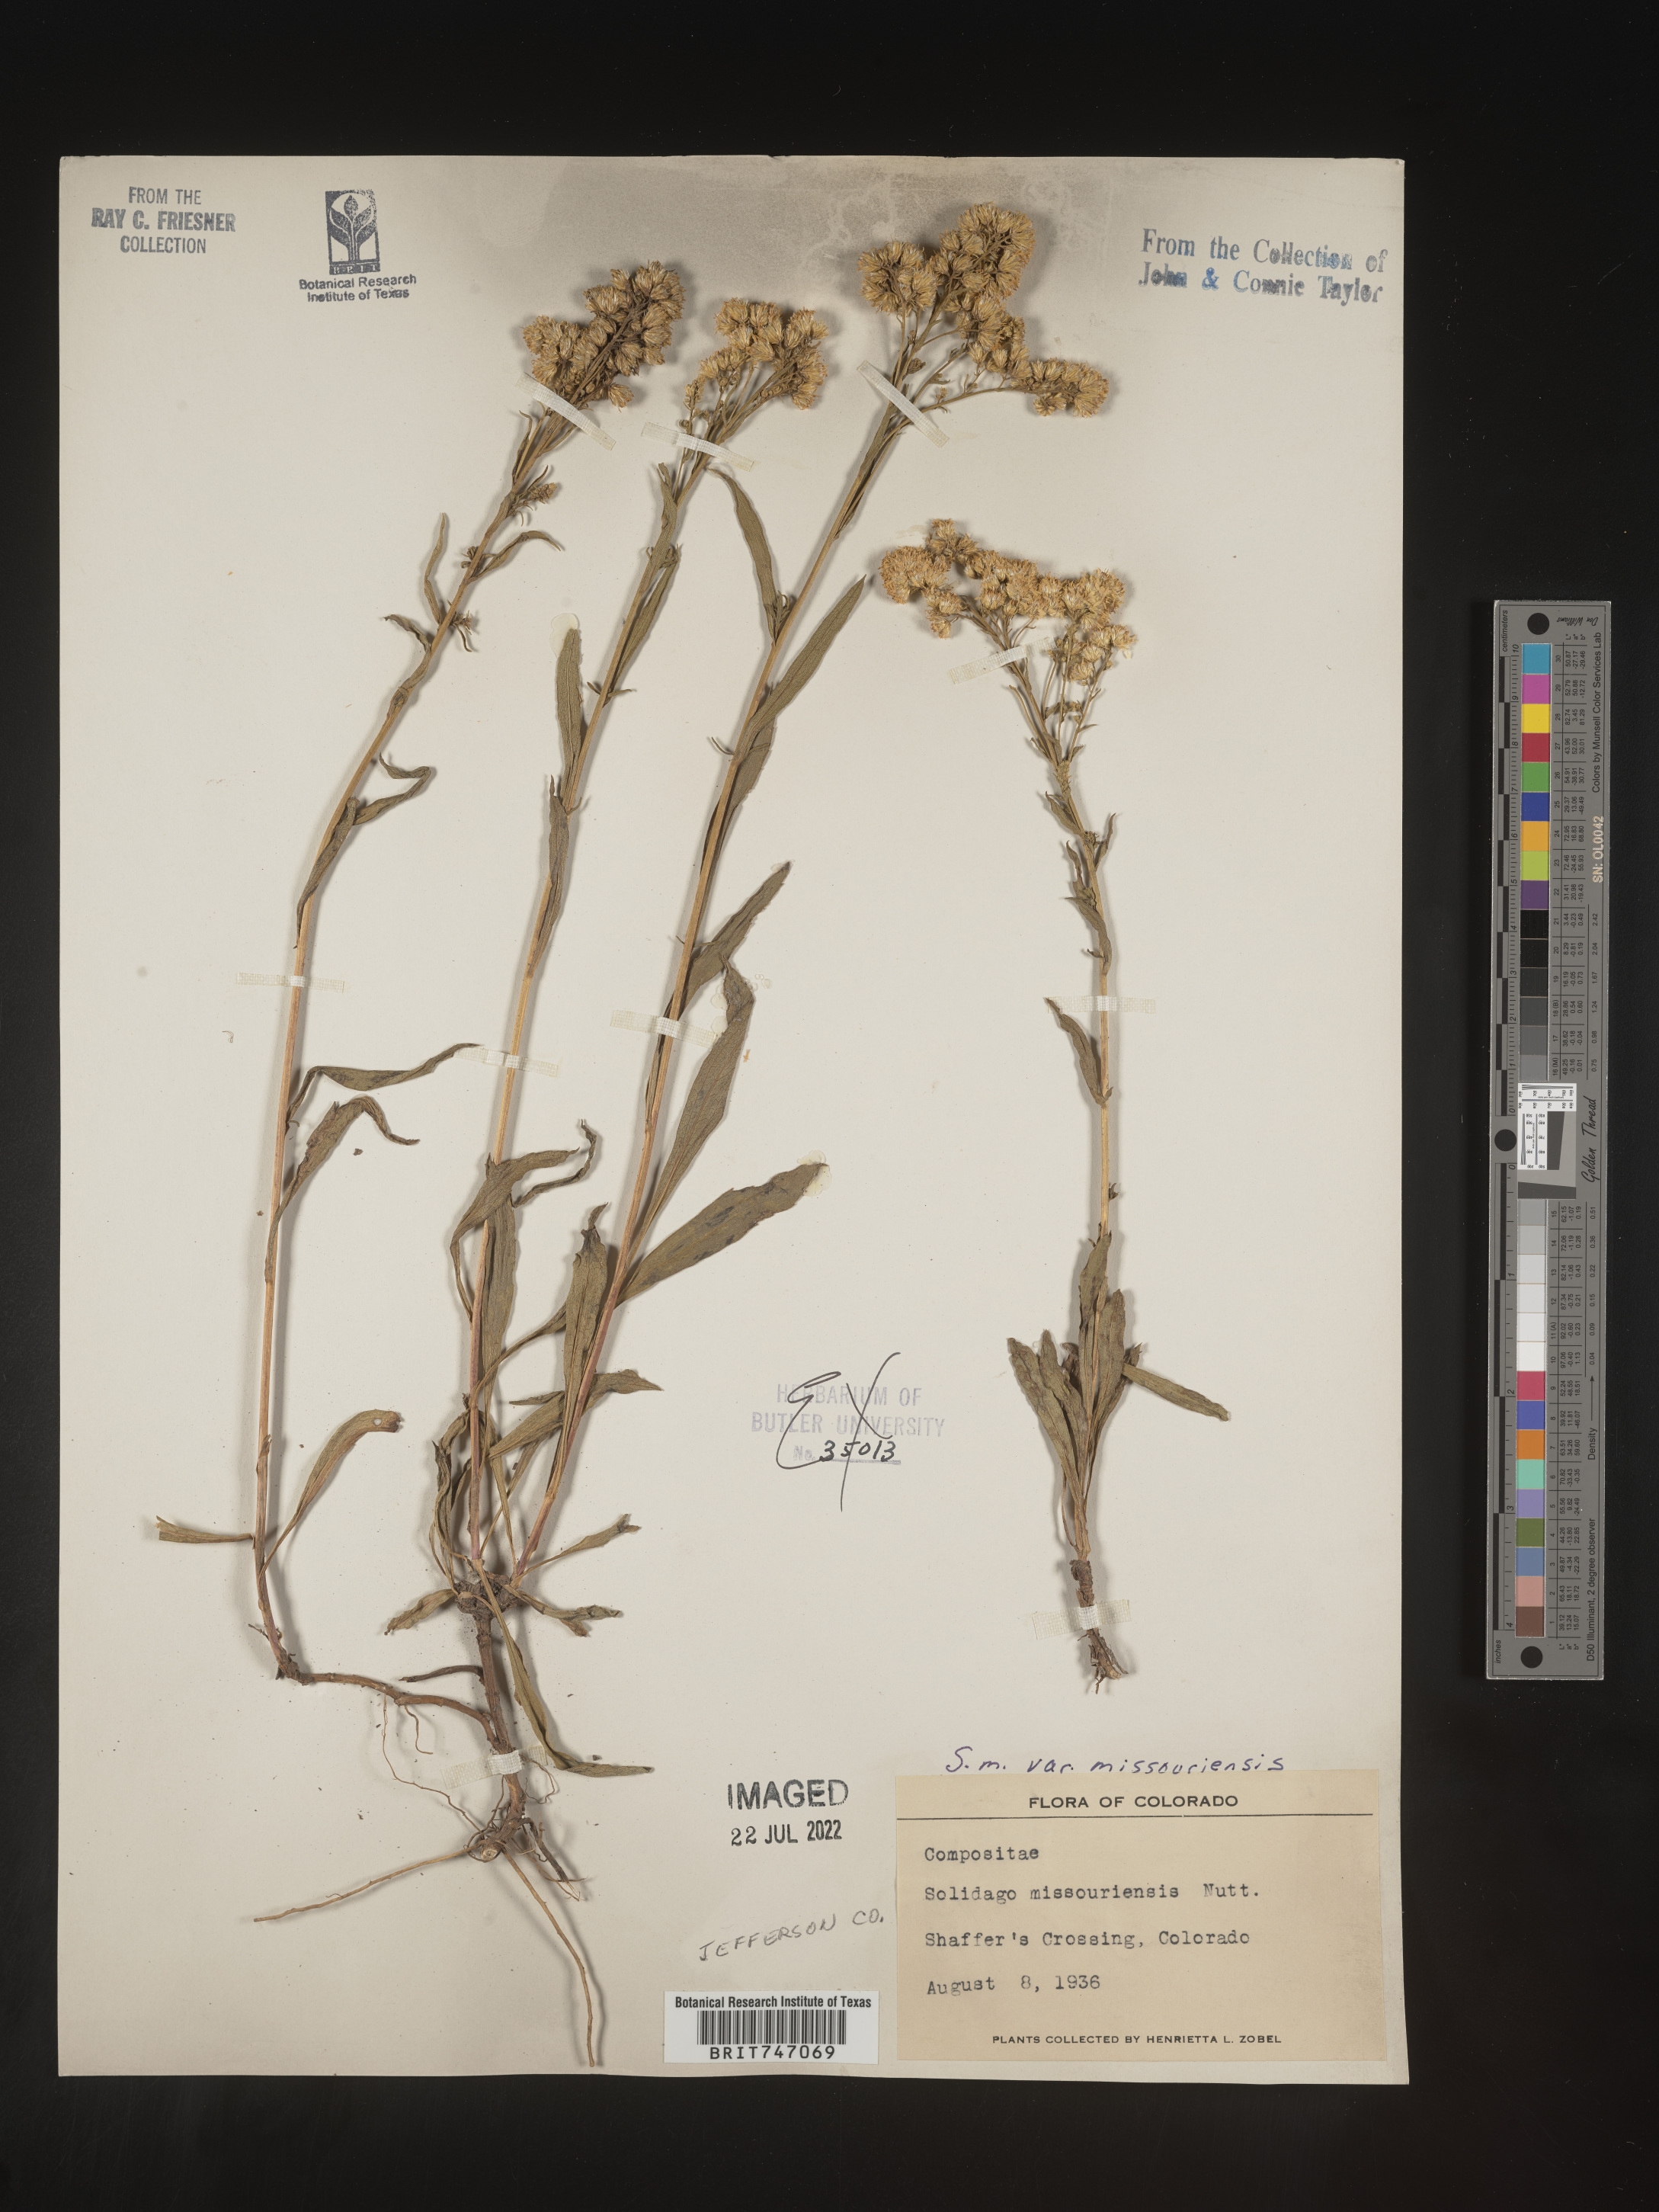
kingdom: Plantae
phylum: Tracheophyta
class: Magnoliopsida
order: Asterales
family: Asteraceae
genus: Solidago
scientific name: Solidago missouriensis
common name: Prairie goldenrod
